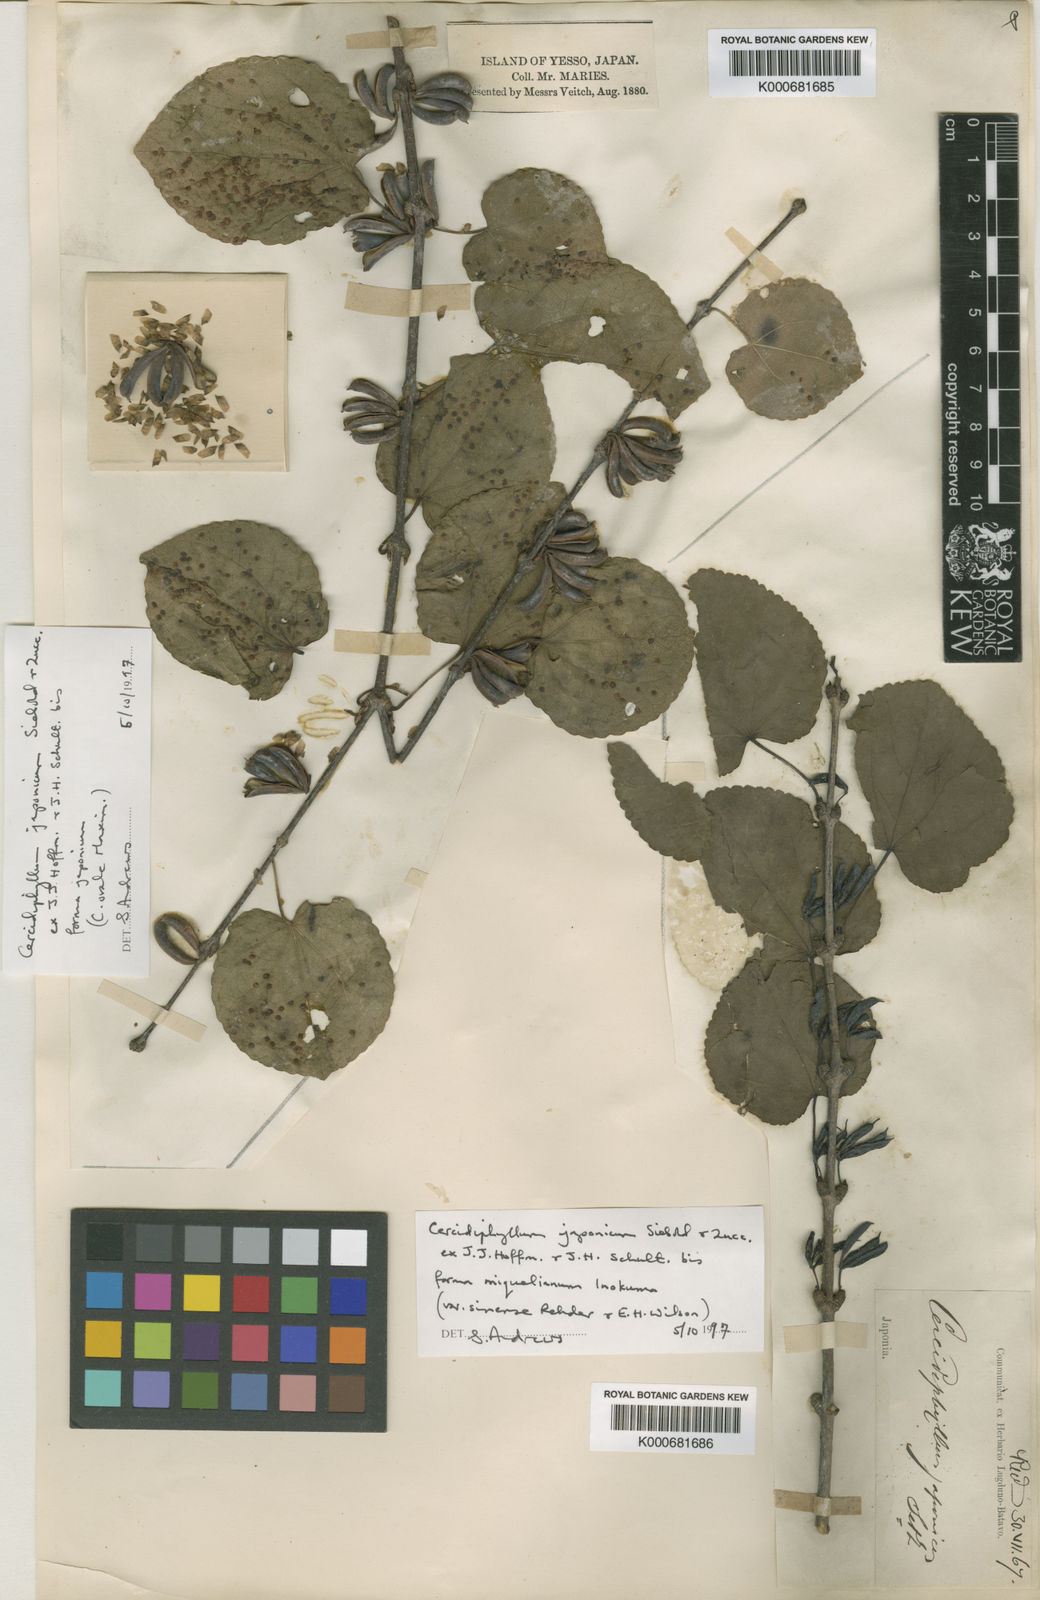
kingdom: Plantae
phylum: Tracheophyta
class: Magnoliopsida
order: Saxifragales
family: Cercidiphyllaceae
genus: Cercidiphyllum
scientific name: Cercidiphyllum japonicum
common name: Katsura tree
